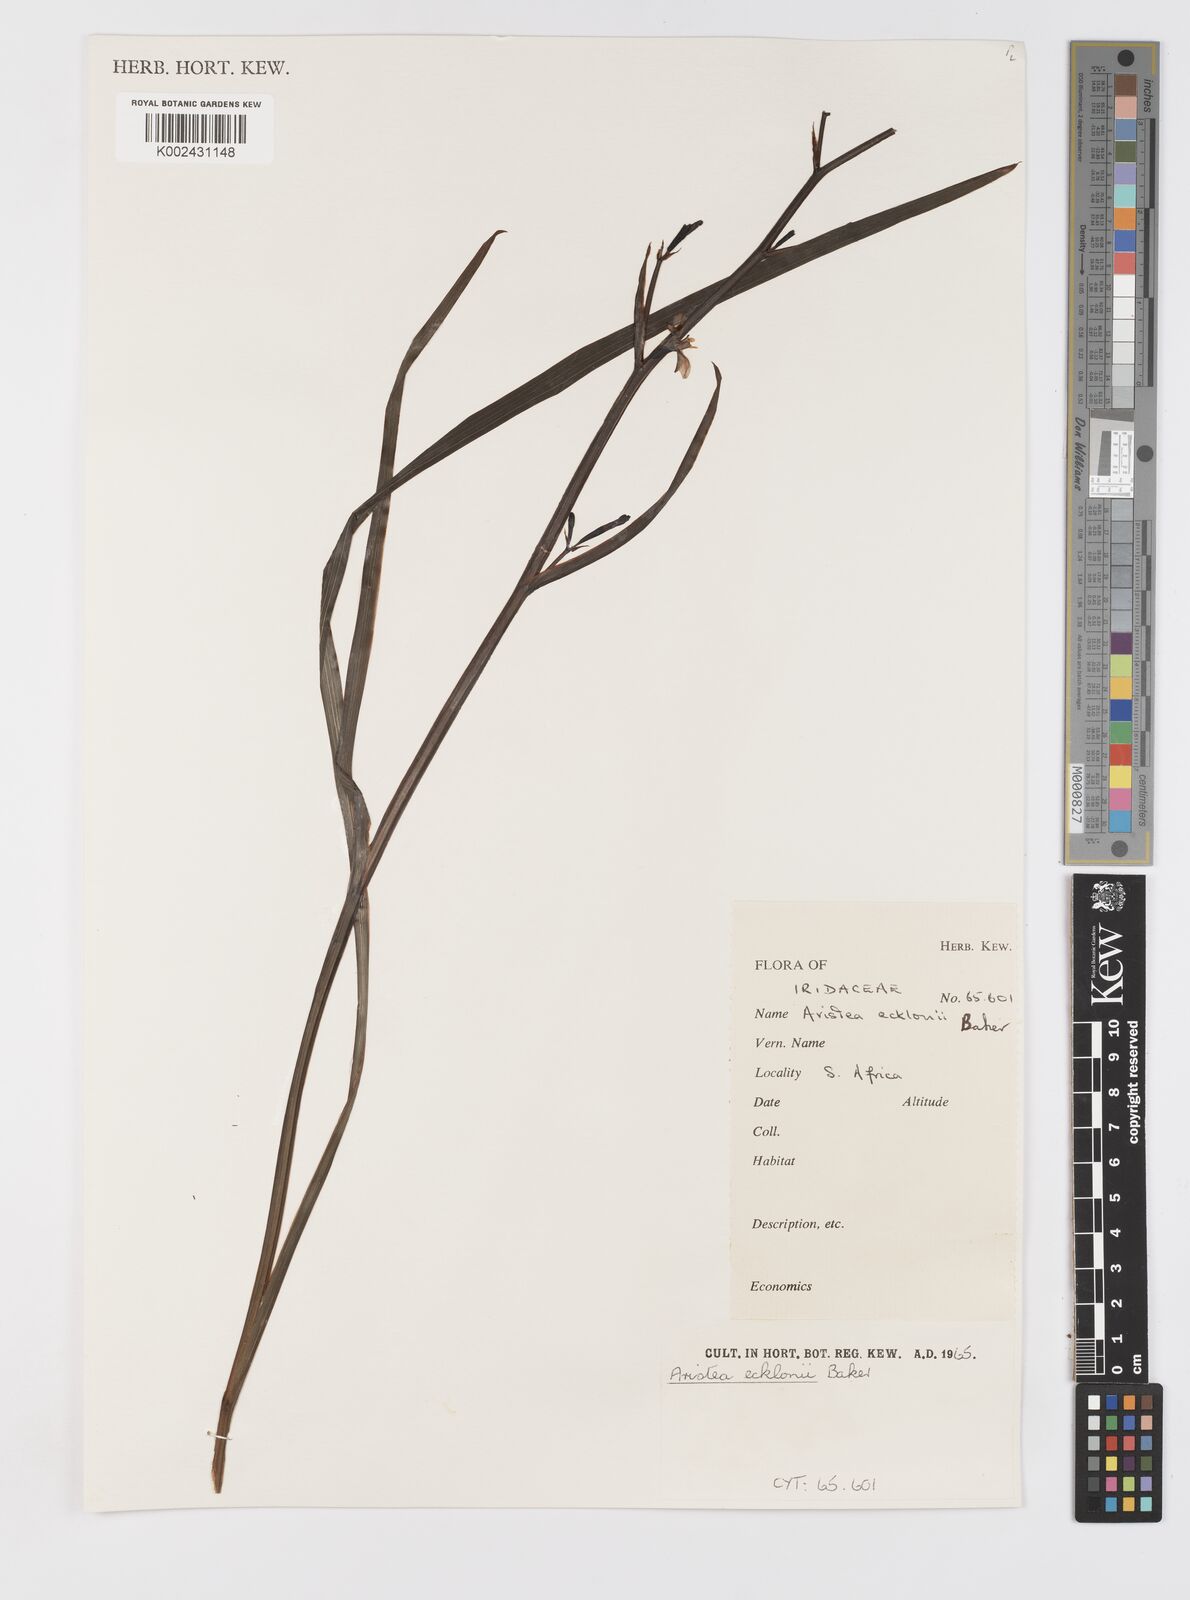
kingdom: Plantae
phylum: Tracheophyta
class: Liliopsida
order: Asparagales
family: Iridaceae
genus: Aristea
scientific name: Aristea ecklonii
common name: Blue corn-lily
